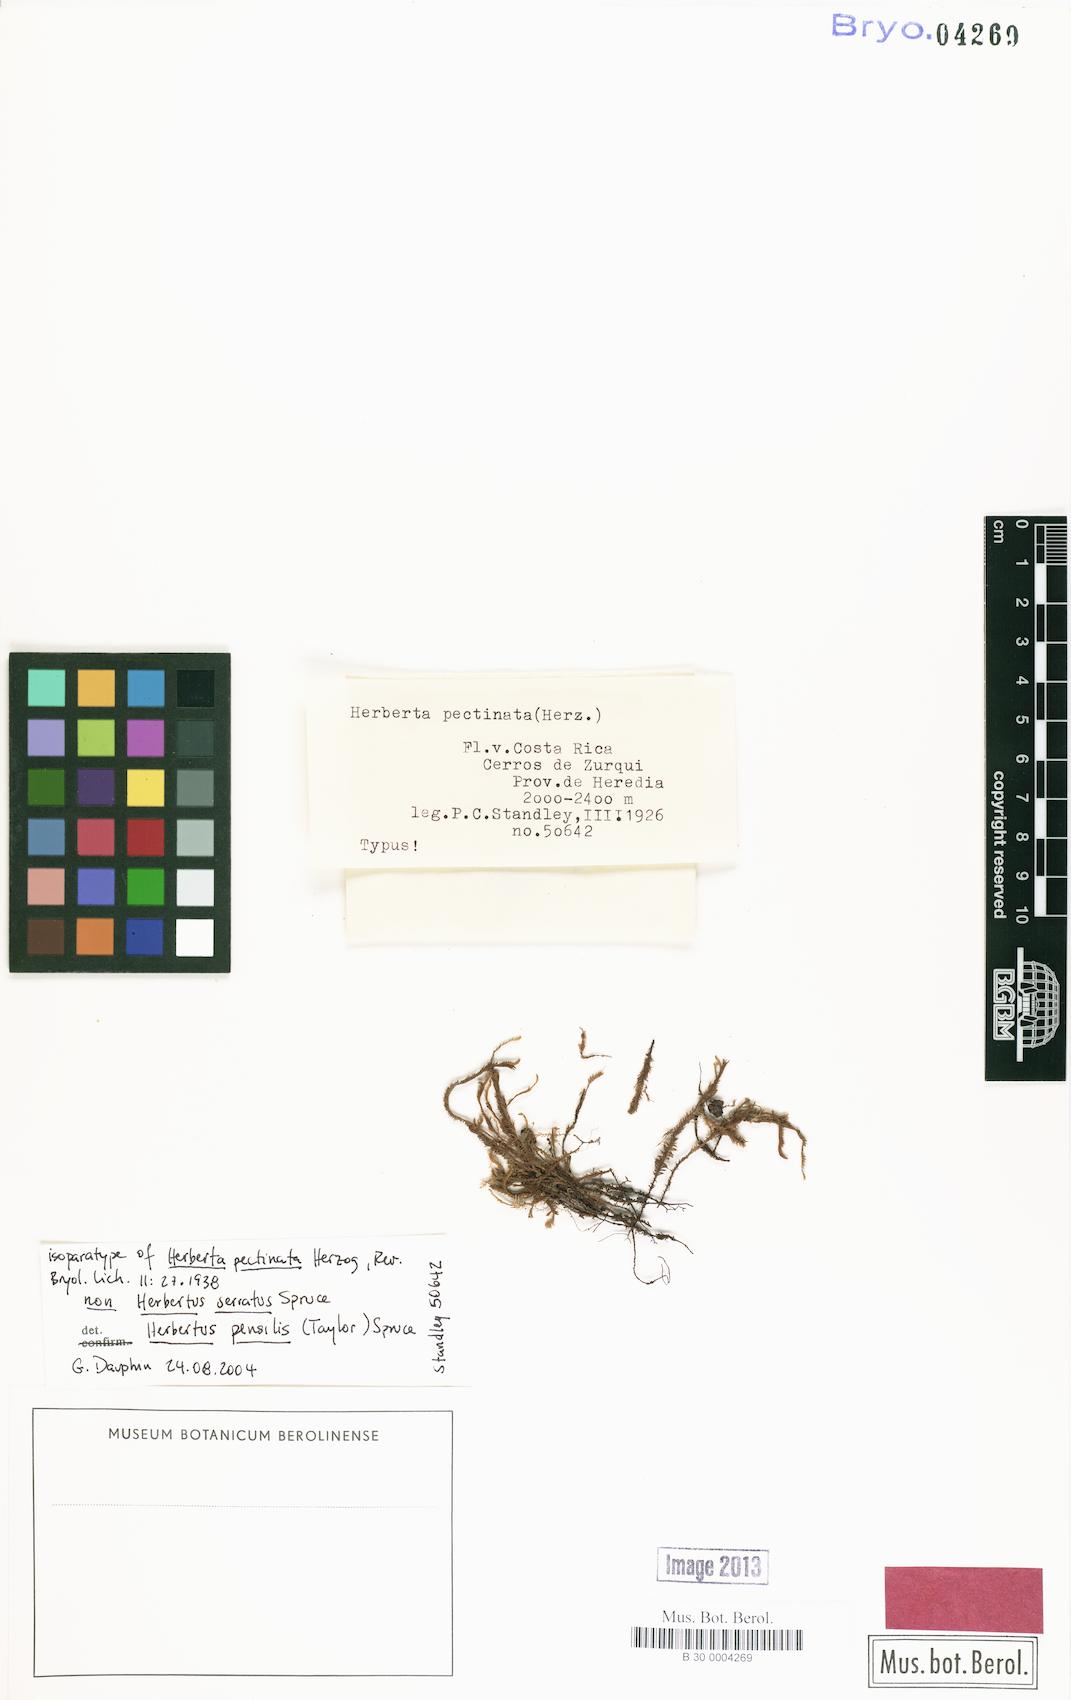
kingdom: Plantae
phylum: Marchantiophyta
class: Jungermanniopsida
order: Jungermanniales
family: Herbertaceae
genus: Herbertus
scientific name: Herbertus juniperoideus
